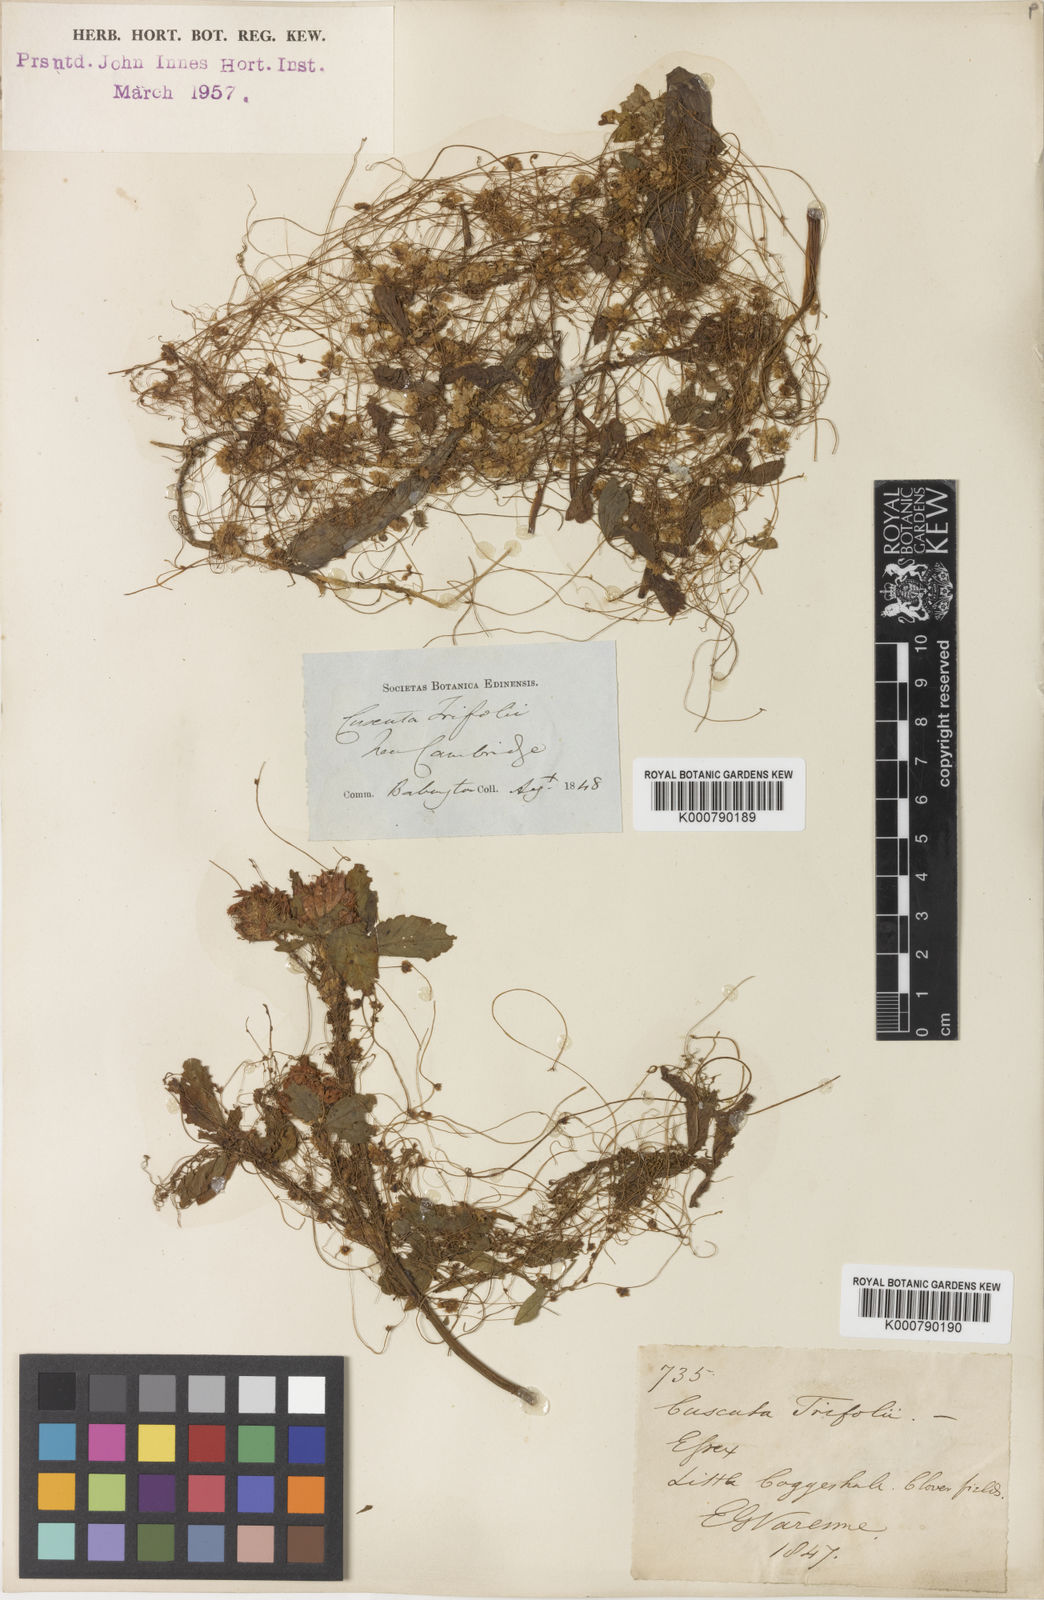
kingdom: Plantae
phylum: Tracheophyta
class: Magnoliopsida
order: Solanales
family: Convolvulaceae
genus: Cuscuta
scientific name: Cuscuta epithymum
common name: Clover dodder
